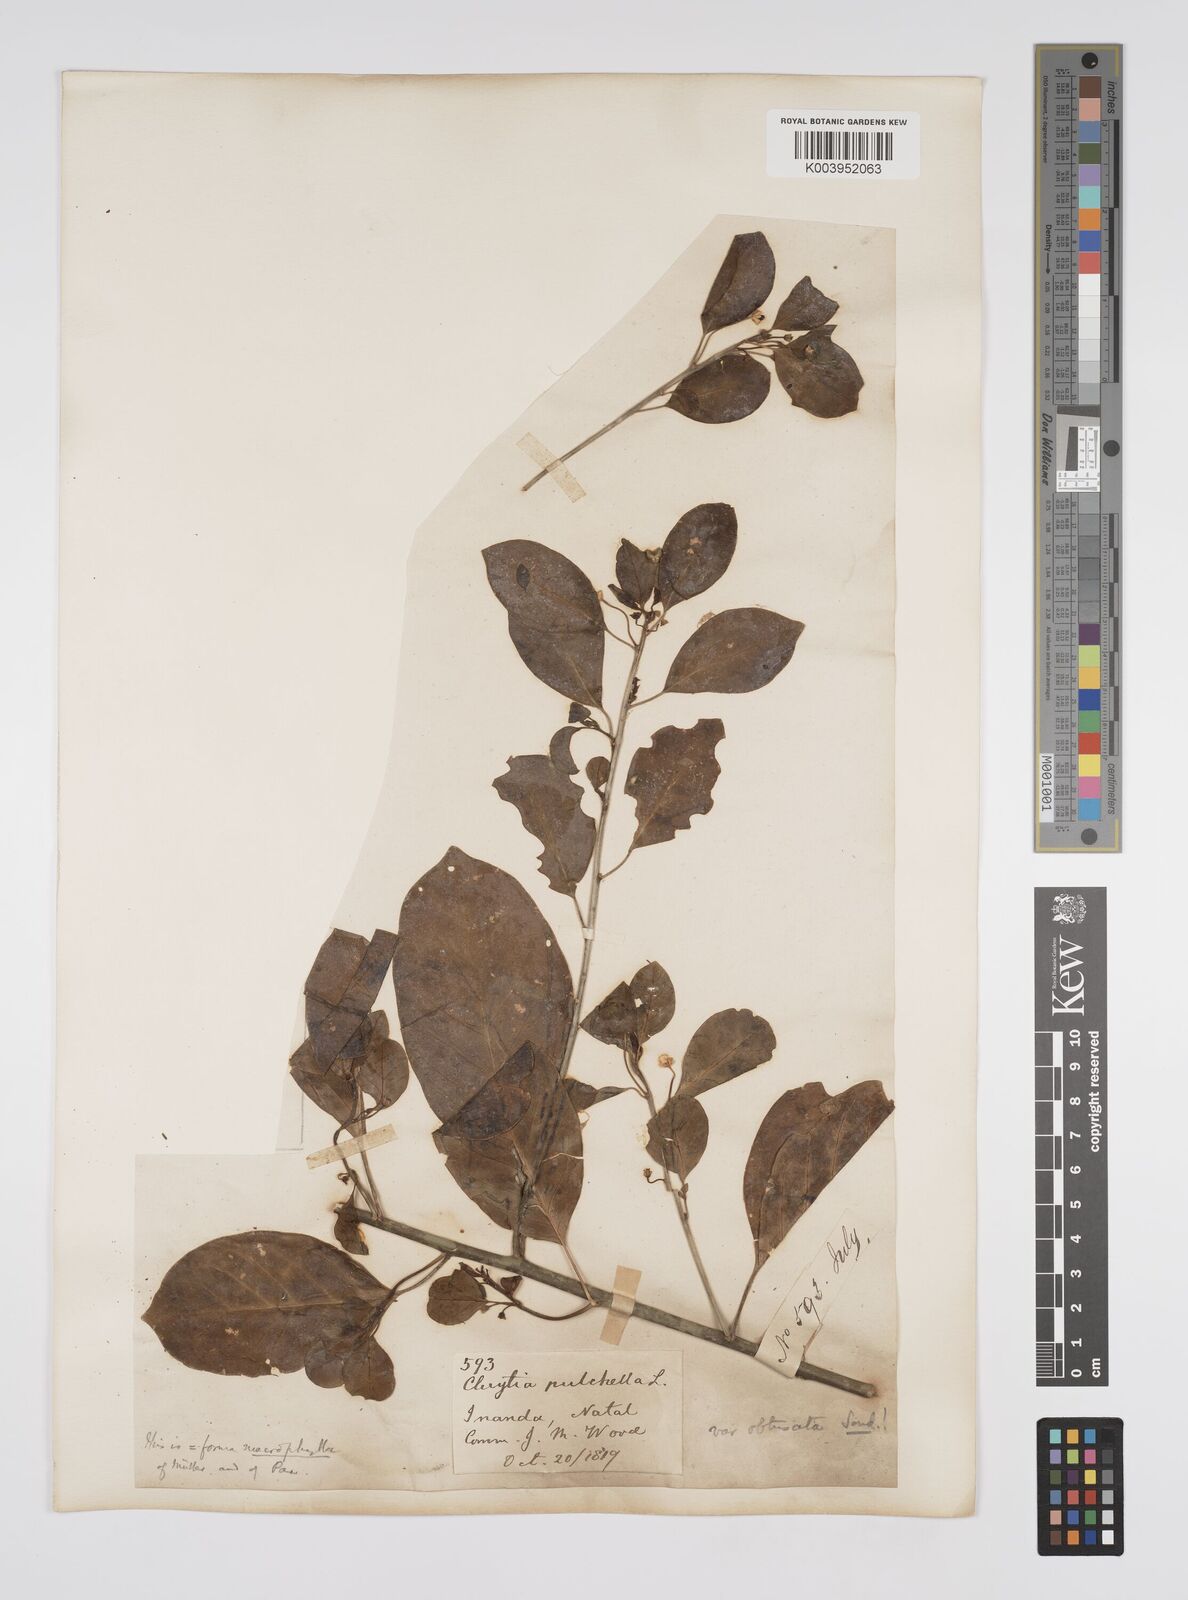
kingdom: Plantae
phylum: Tracheophyta
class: Magnoliopsida
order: Malpighiales
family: Peraceae
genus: Clutia
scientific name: Clutia pulchella
